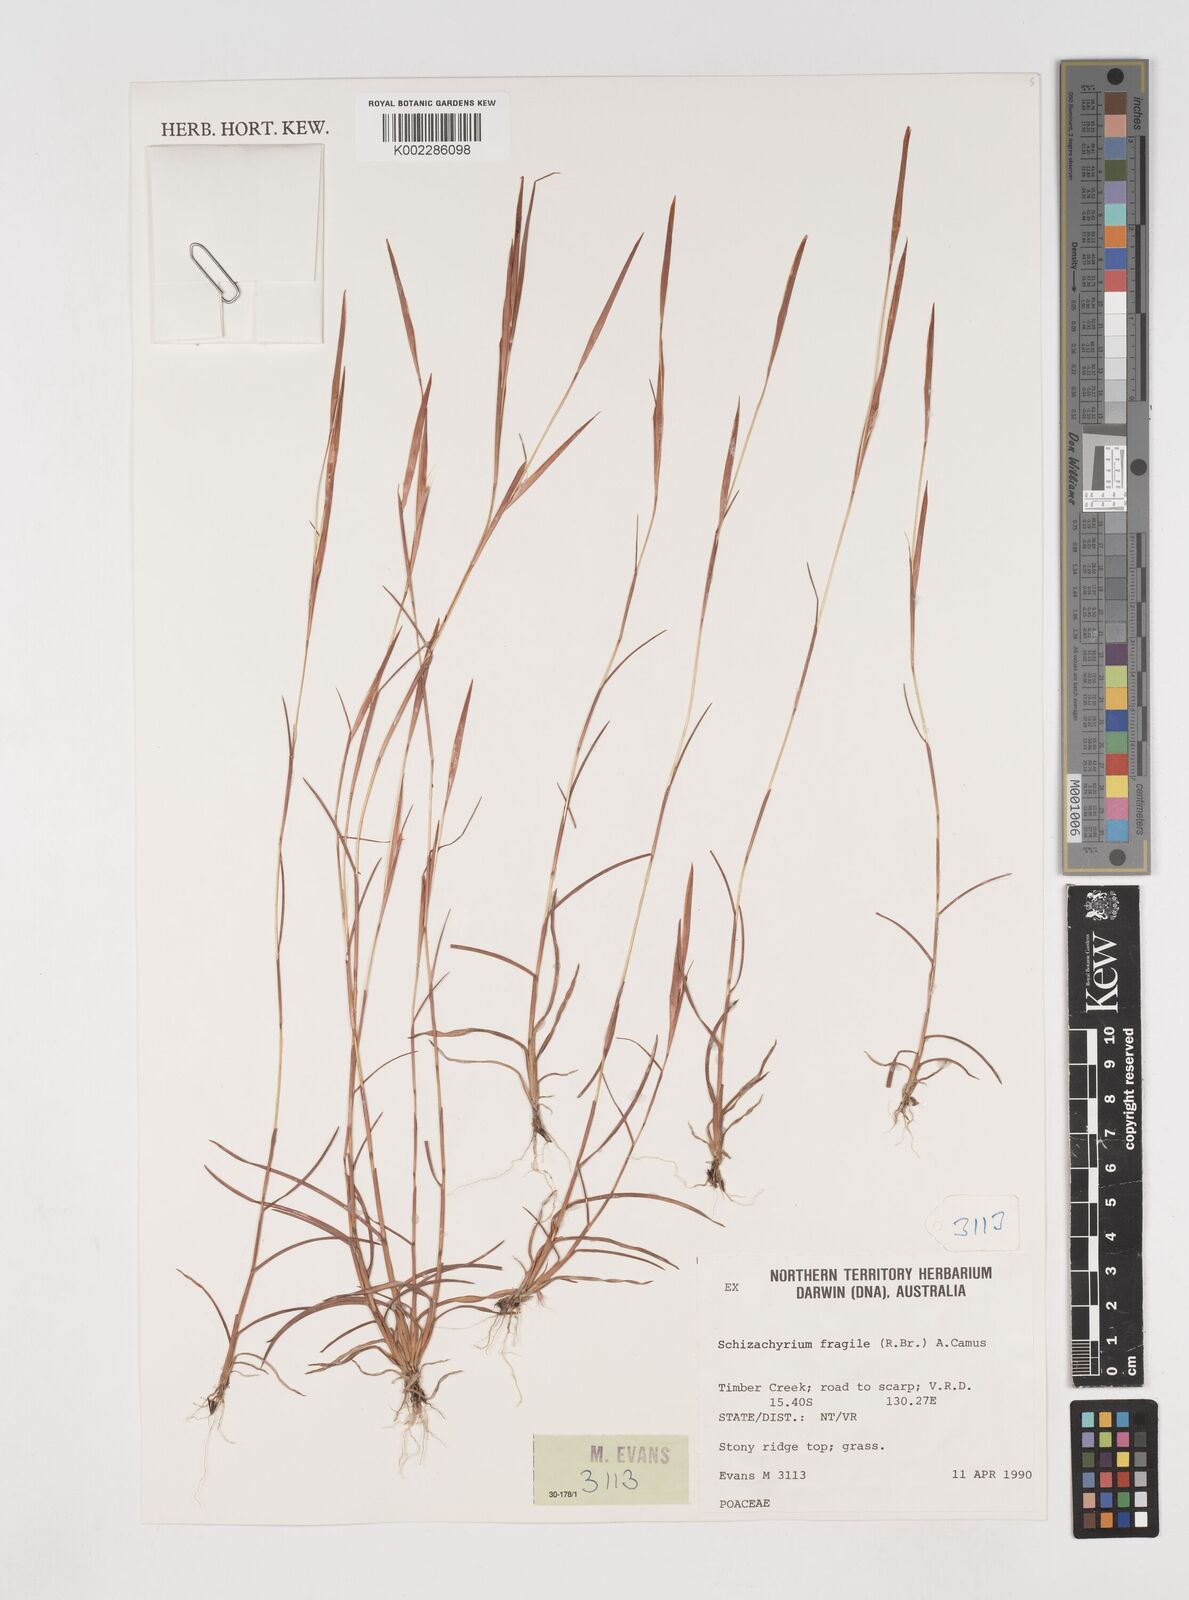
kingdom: Plantae
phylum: Tracheophyta
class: Liliopsida
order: Poales
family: Poaceae
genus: Schizachyrium
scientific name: Schizachyrium fragile
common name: Red spathe grass
